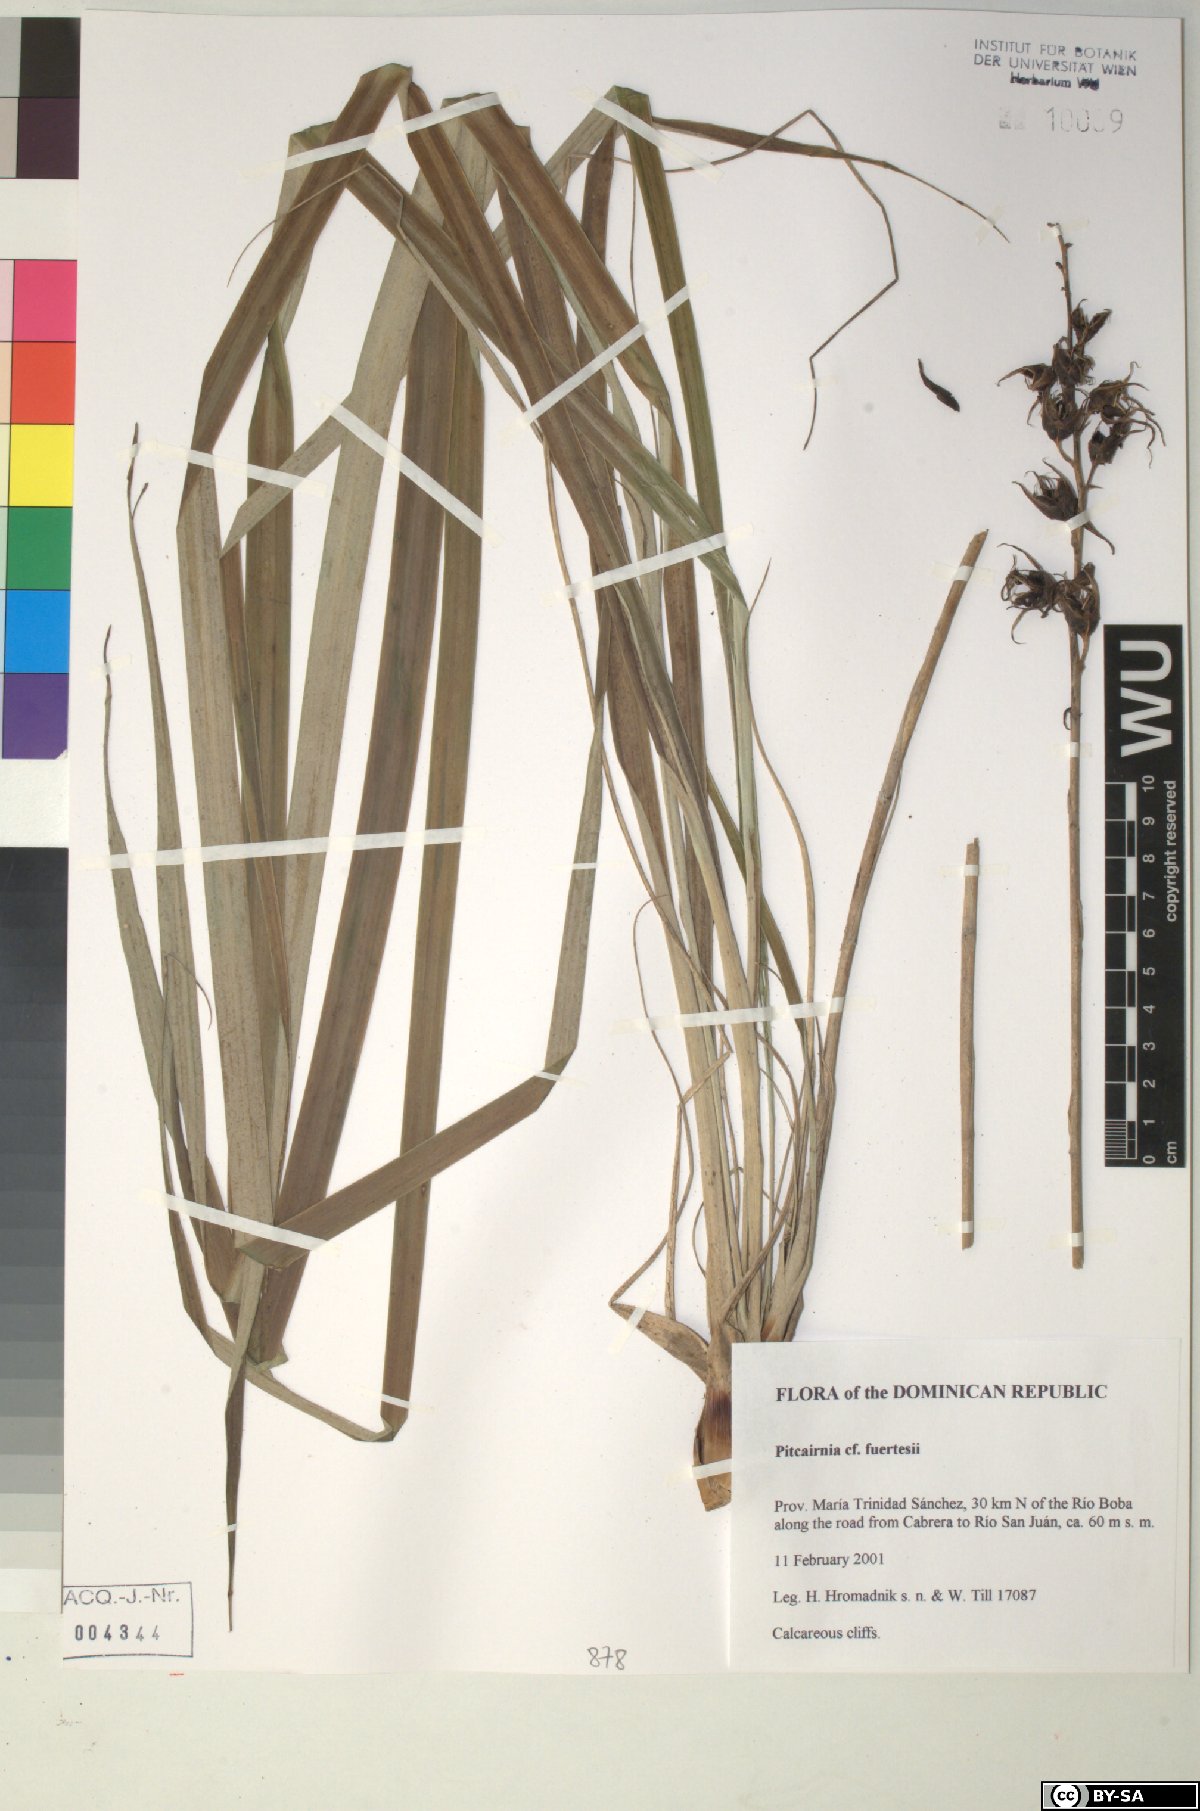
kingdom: Plantae
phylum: Tracheophyta
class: Liliopsida
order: Poales
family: Bromeliaceae
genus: Pitcairnia
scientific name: Pitcairnia fuertesii
